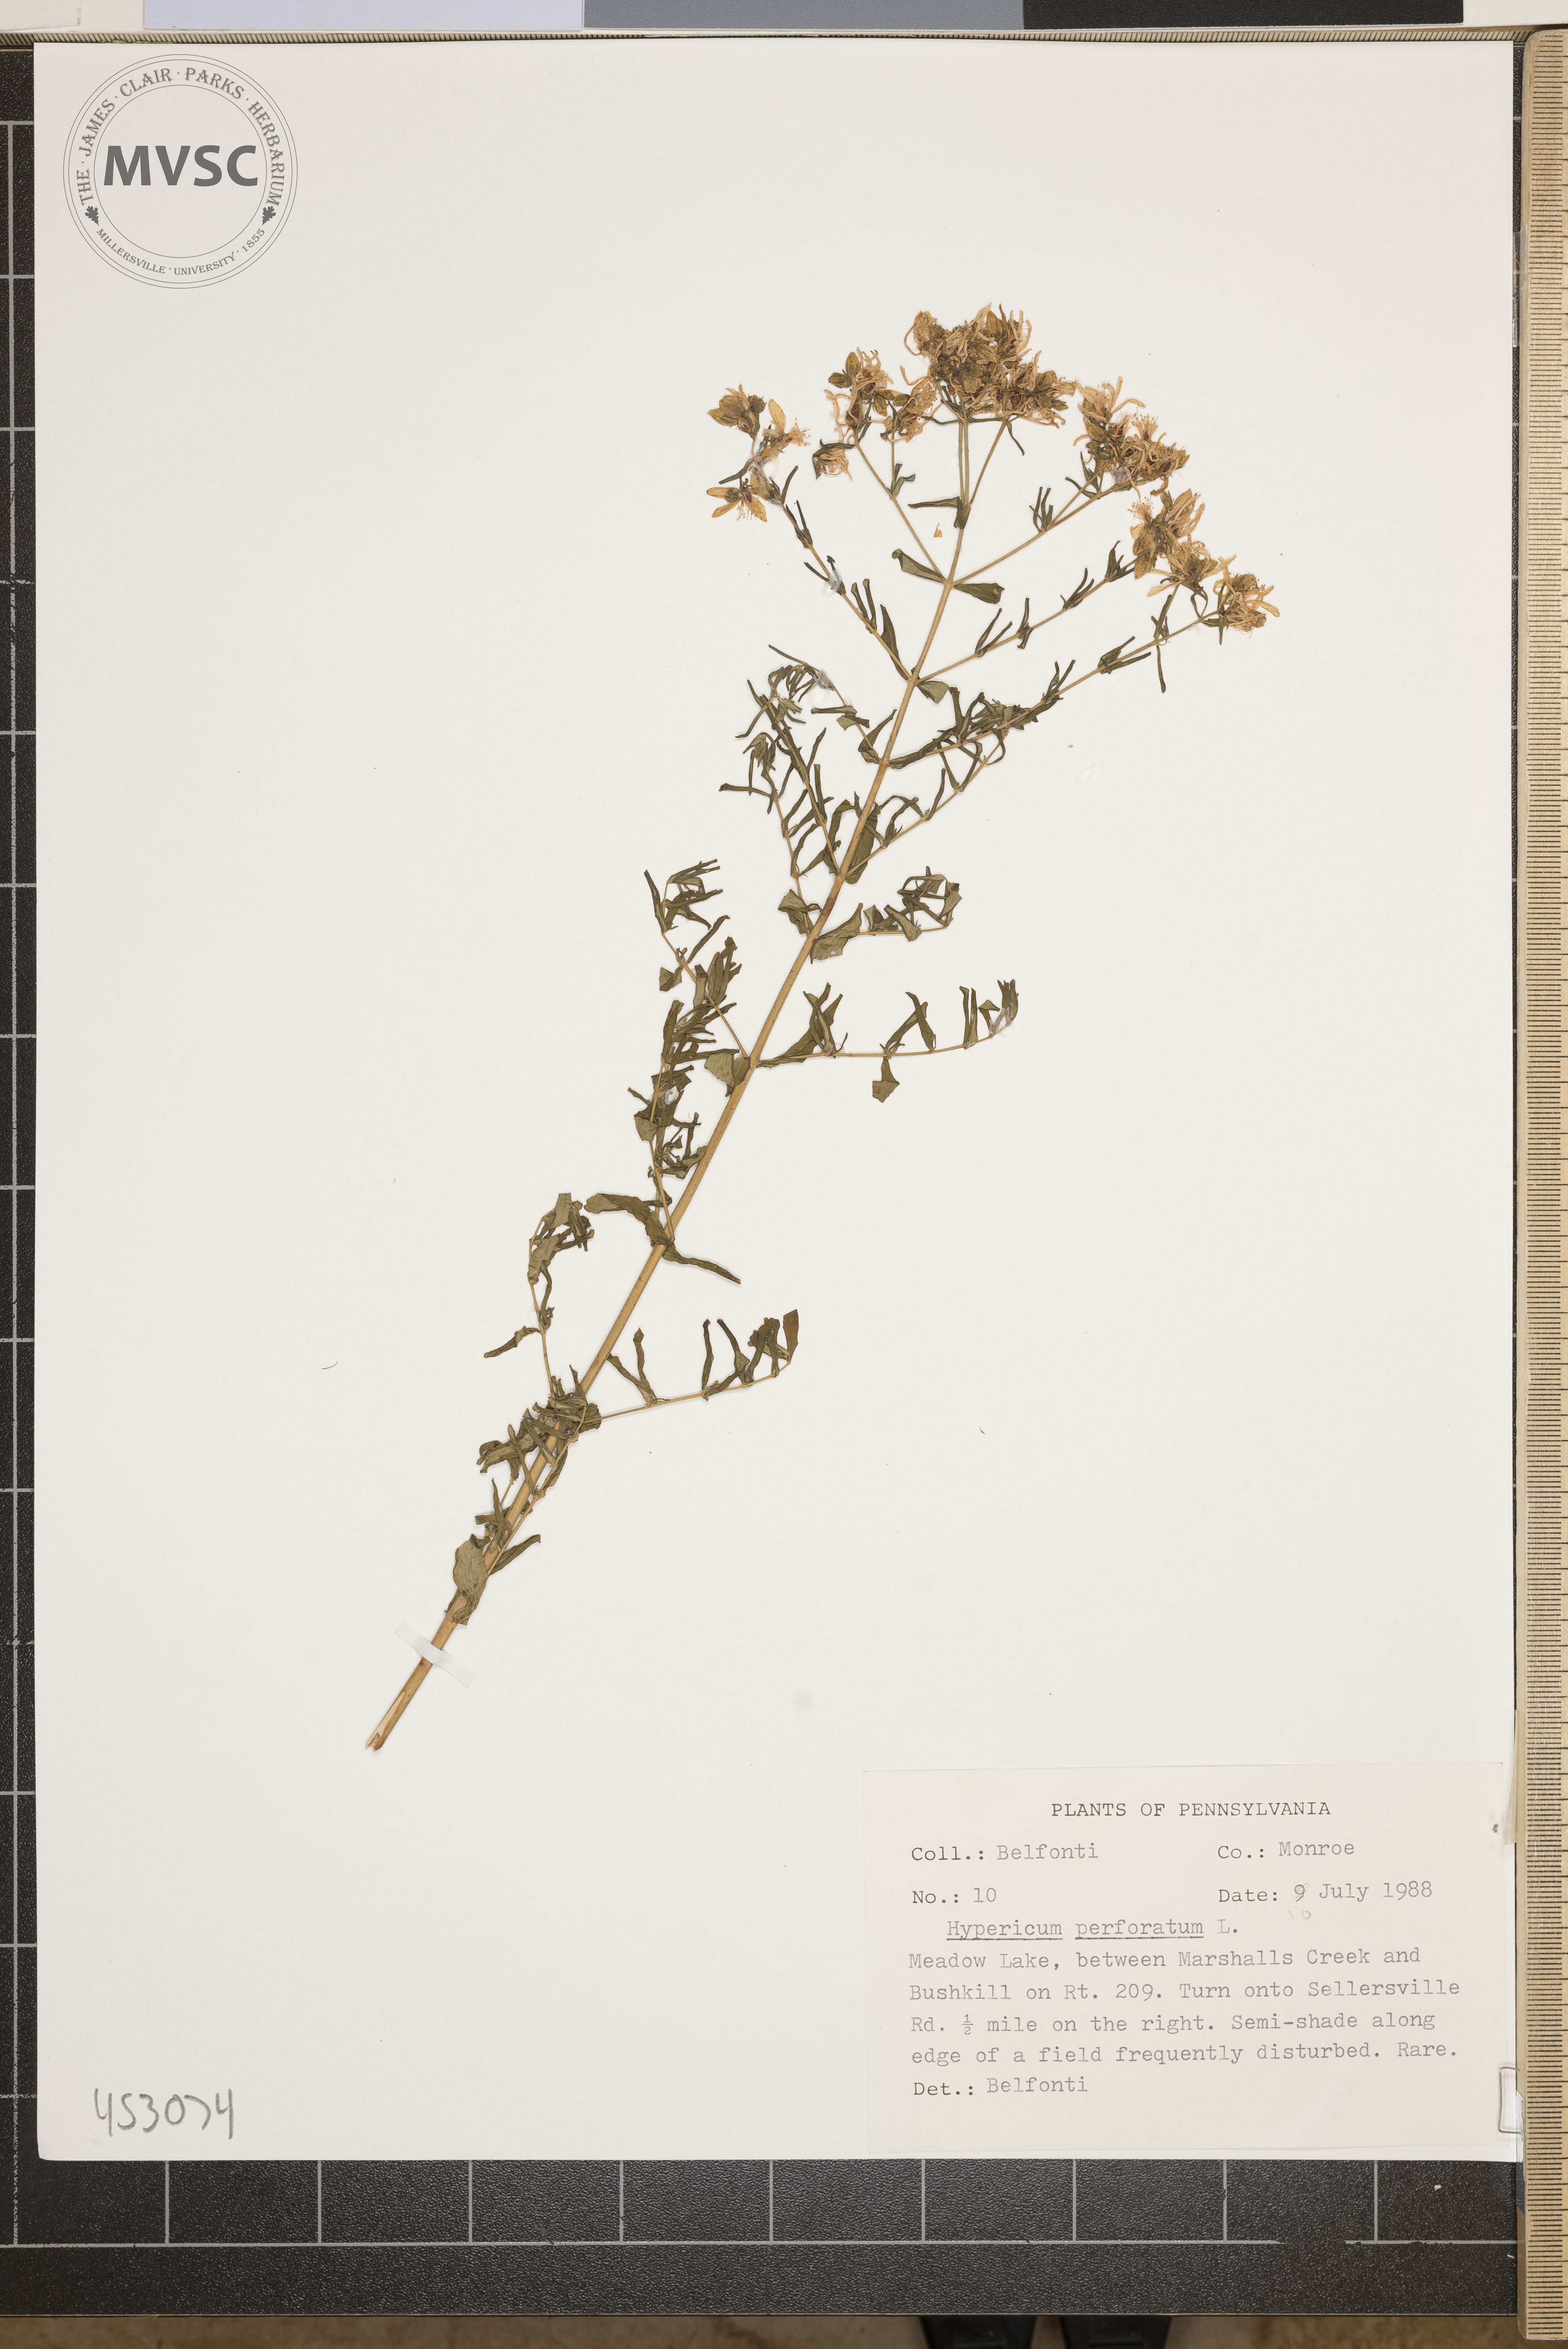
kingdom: Plantae
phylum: Tracheophyta
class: Magnoliopsida
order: Malpighiales
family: Hypericaceae
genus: Hypericum
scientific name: Hypericum perforatum
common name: Common st. johnswort
